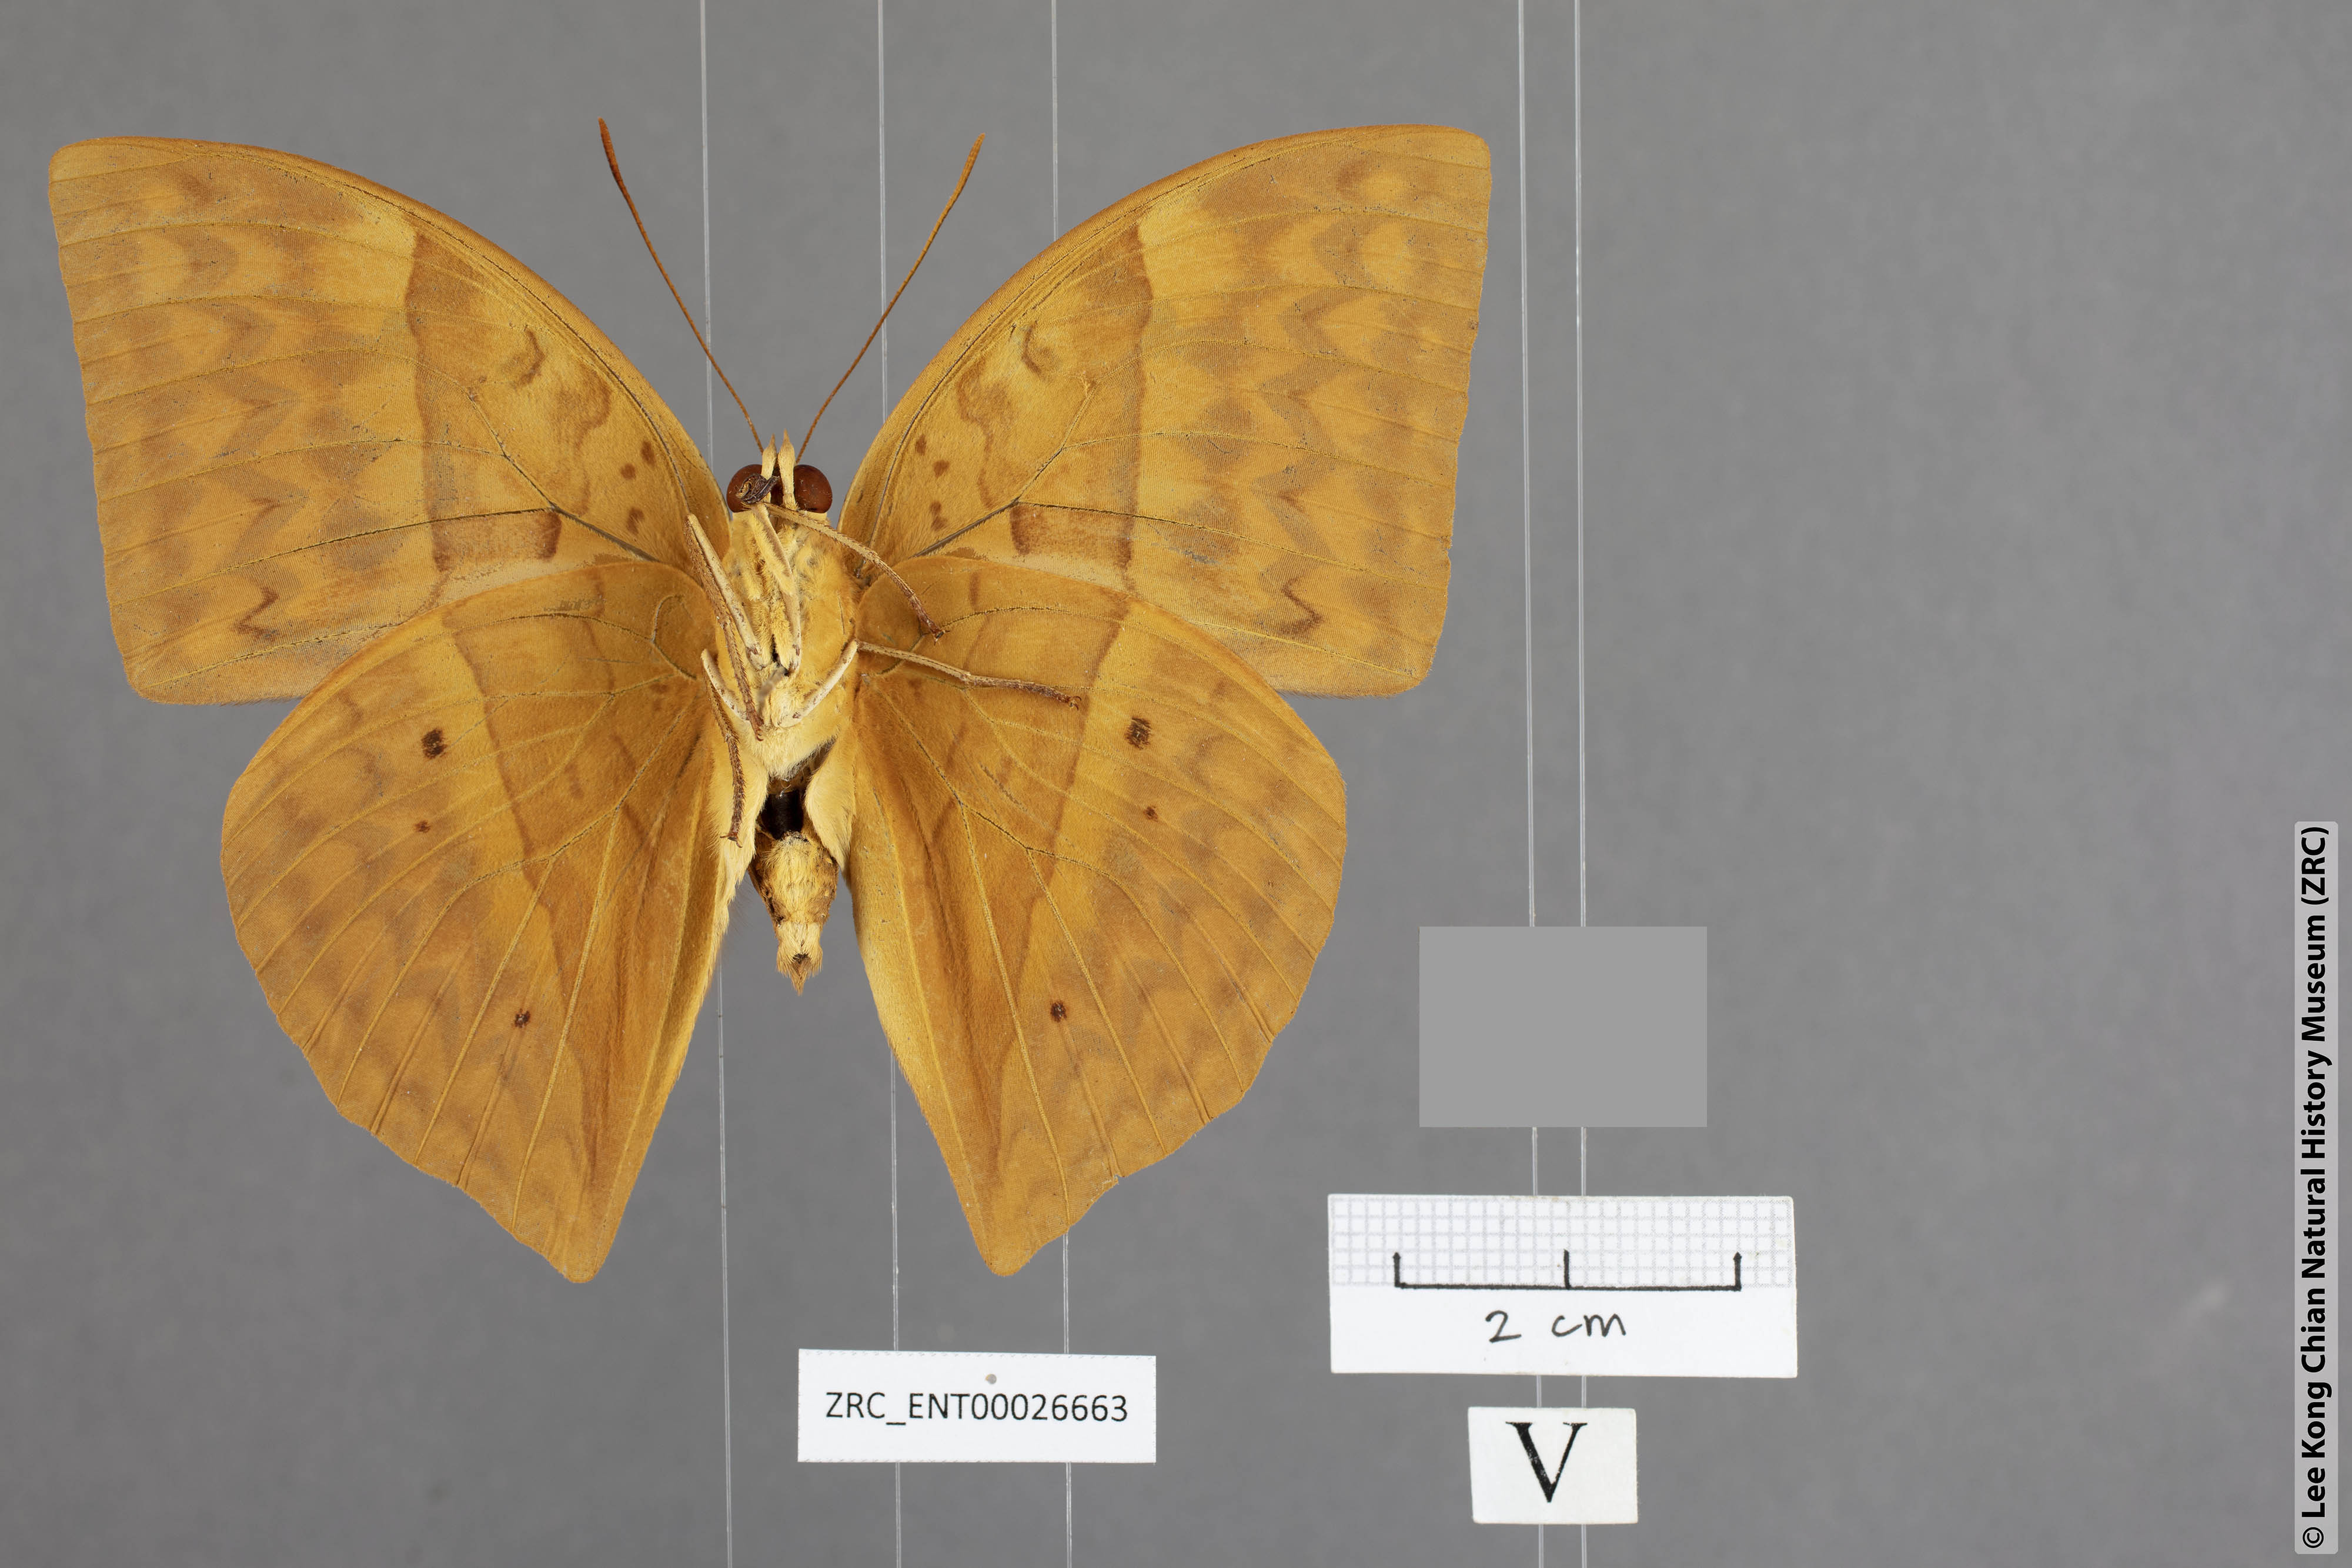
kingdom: Animalia
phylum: Arthropoda
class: Insecta
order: Lepidoptera
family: Nymphalidae
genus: Enispe
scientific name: Enispe intermedia
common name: Intermediate caliph
